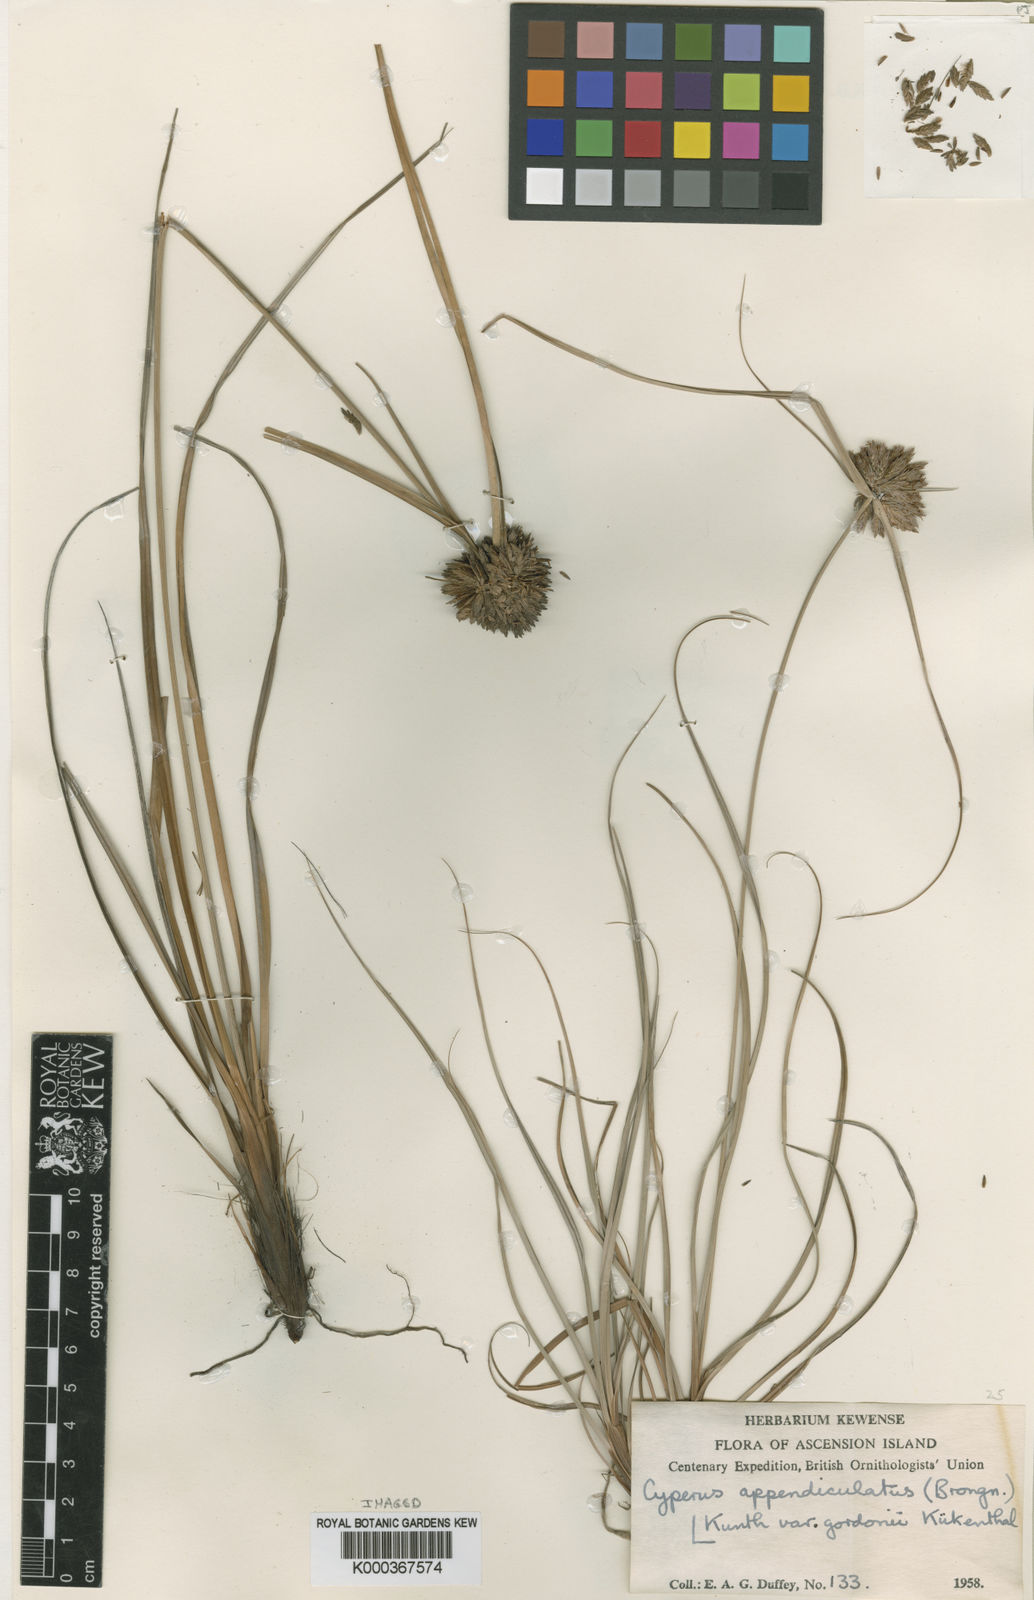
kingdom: Plantae
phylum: Tracheophyta
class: Liliopsida
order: Poales
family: Cyperaceae
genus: Cyperus
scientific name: Cyperus appendiculatus
